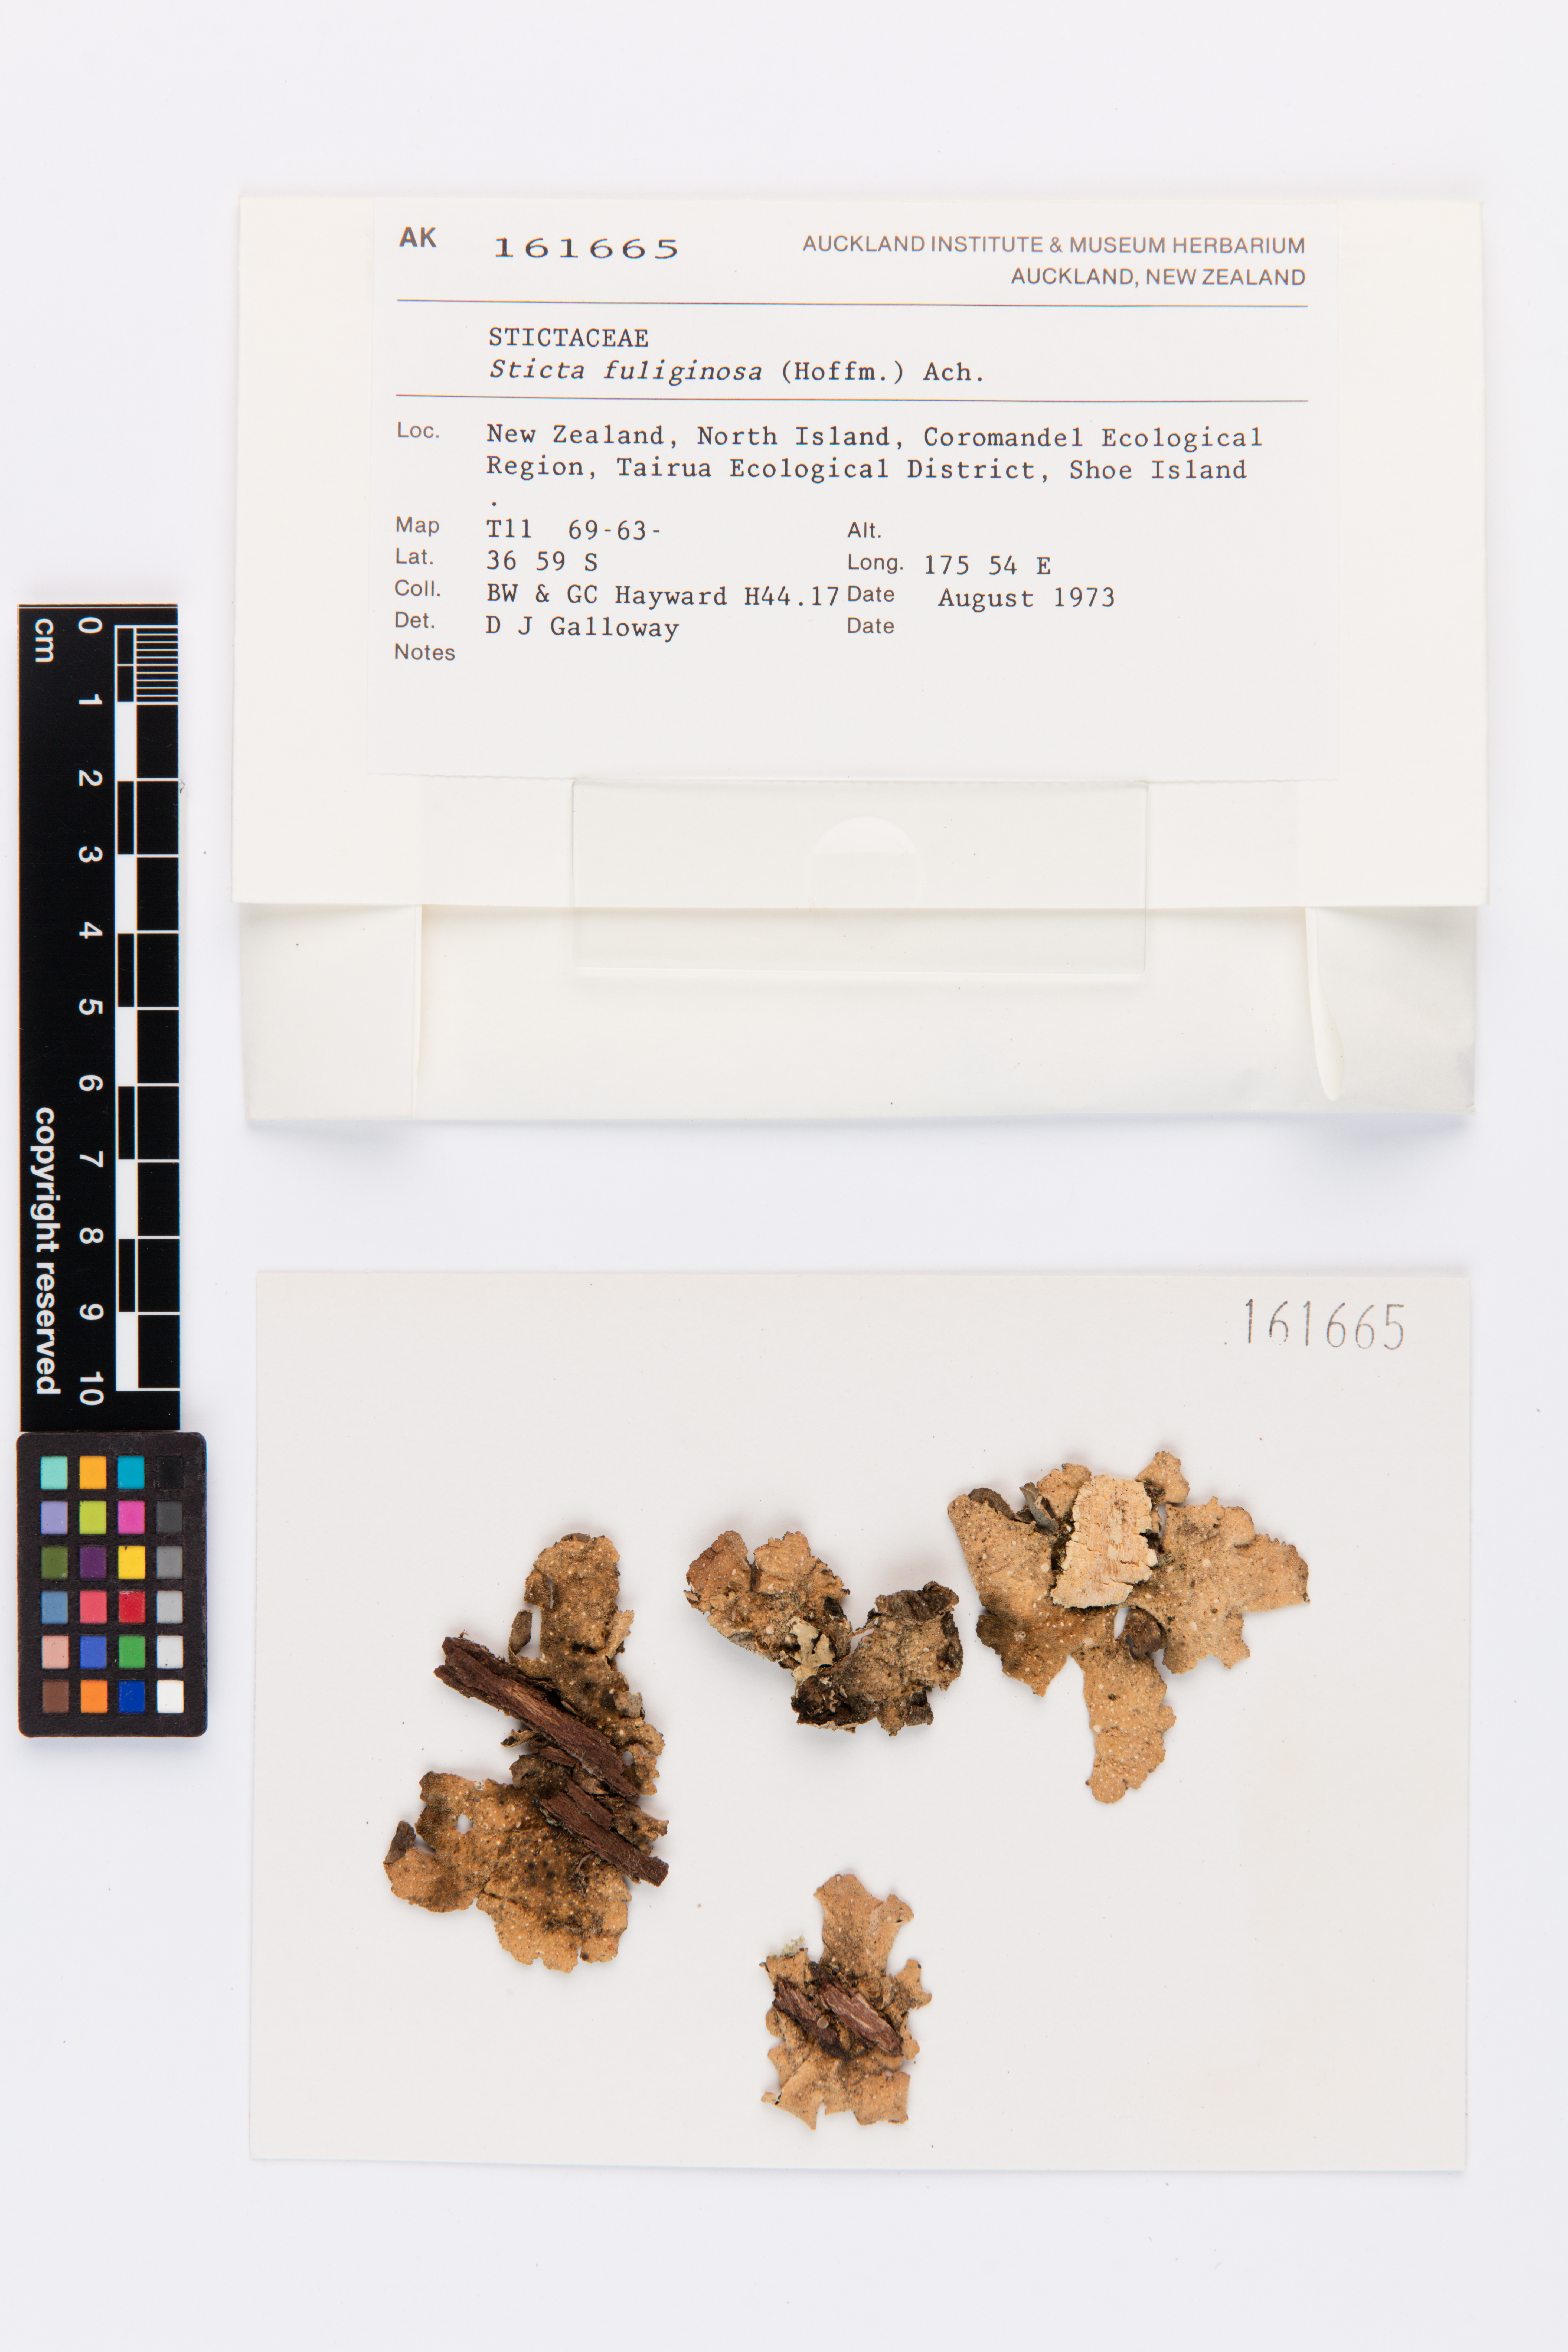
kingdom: Fungi
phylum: Ascomycota
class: Lecanoromycetes
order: Peltigerales
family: Lobariaceae
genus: Sticta
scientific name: Sticta fuliginosa
